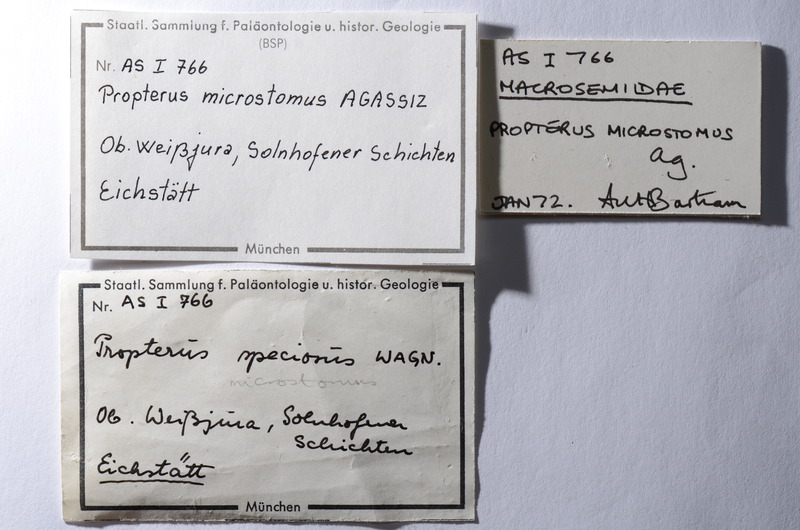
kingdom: Animalia
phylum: Chordata
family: Macrosemiidae
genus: Propterus
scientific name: Propterus microstomus
